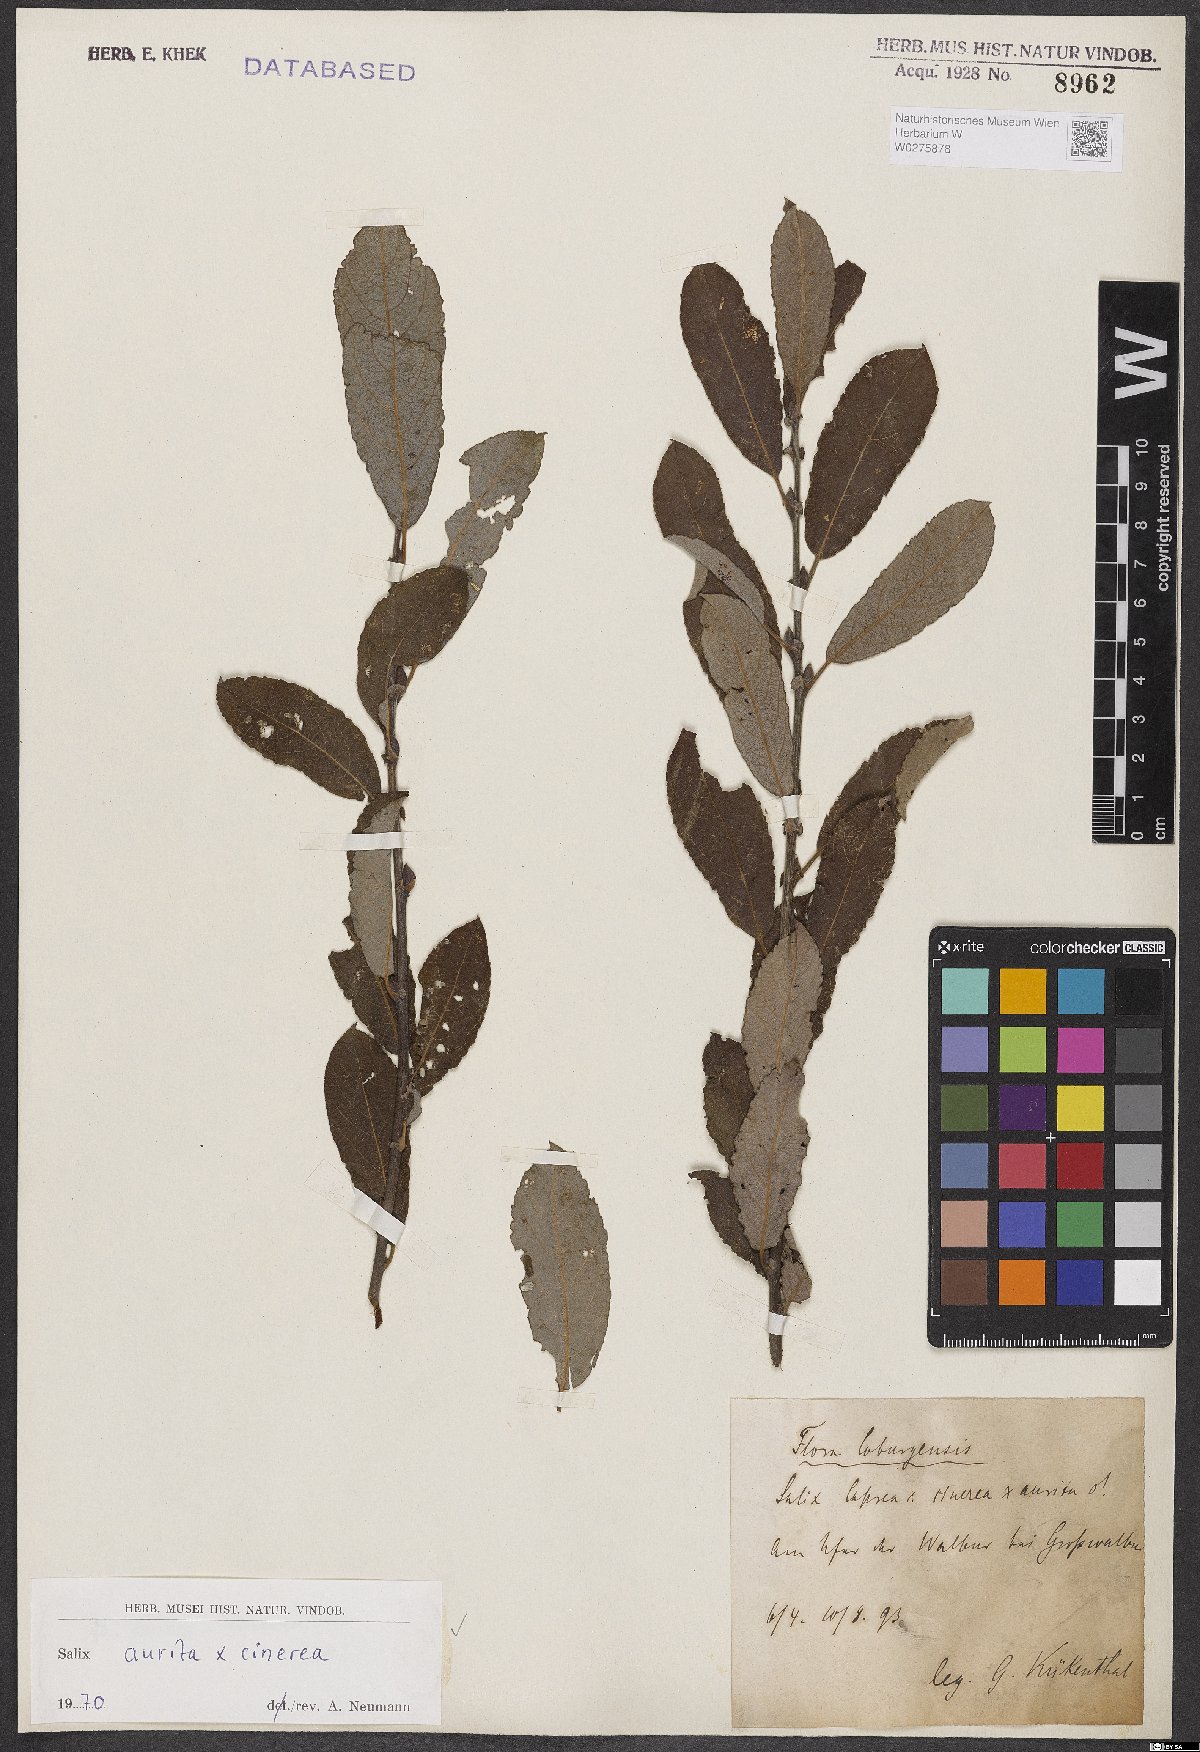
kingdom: Plantae
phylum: Tracheophyta
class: Magnoliopsida
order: Malpighiales
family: Salicaceae
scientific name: Salicaceae
